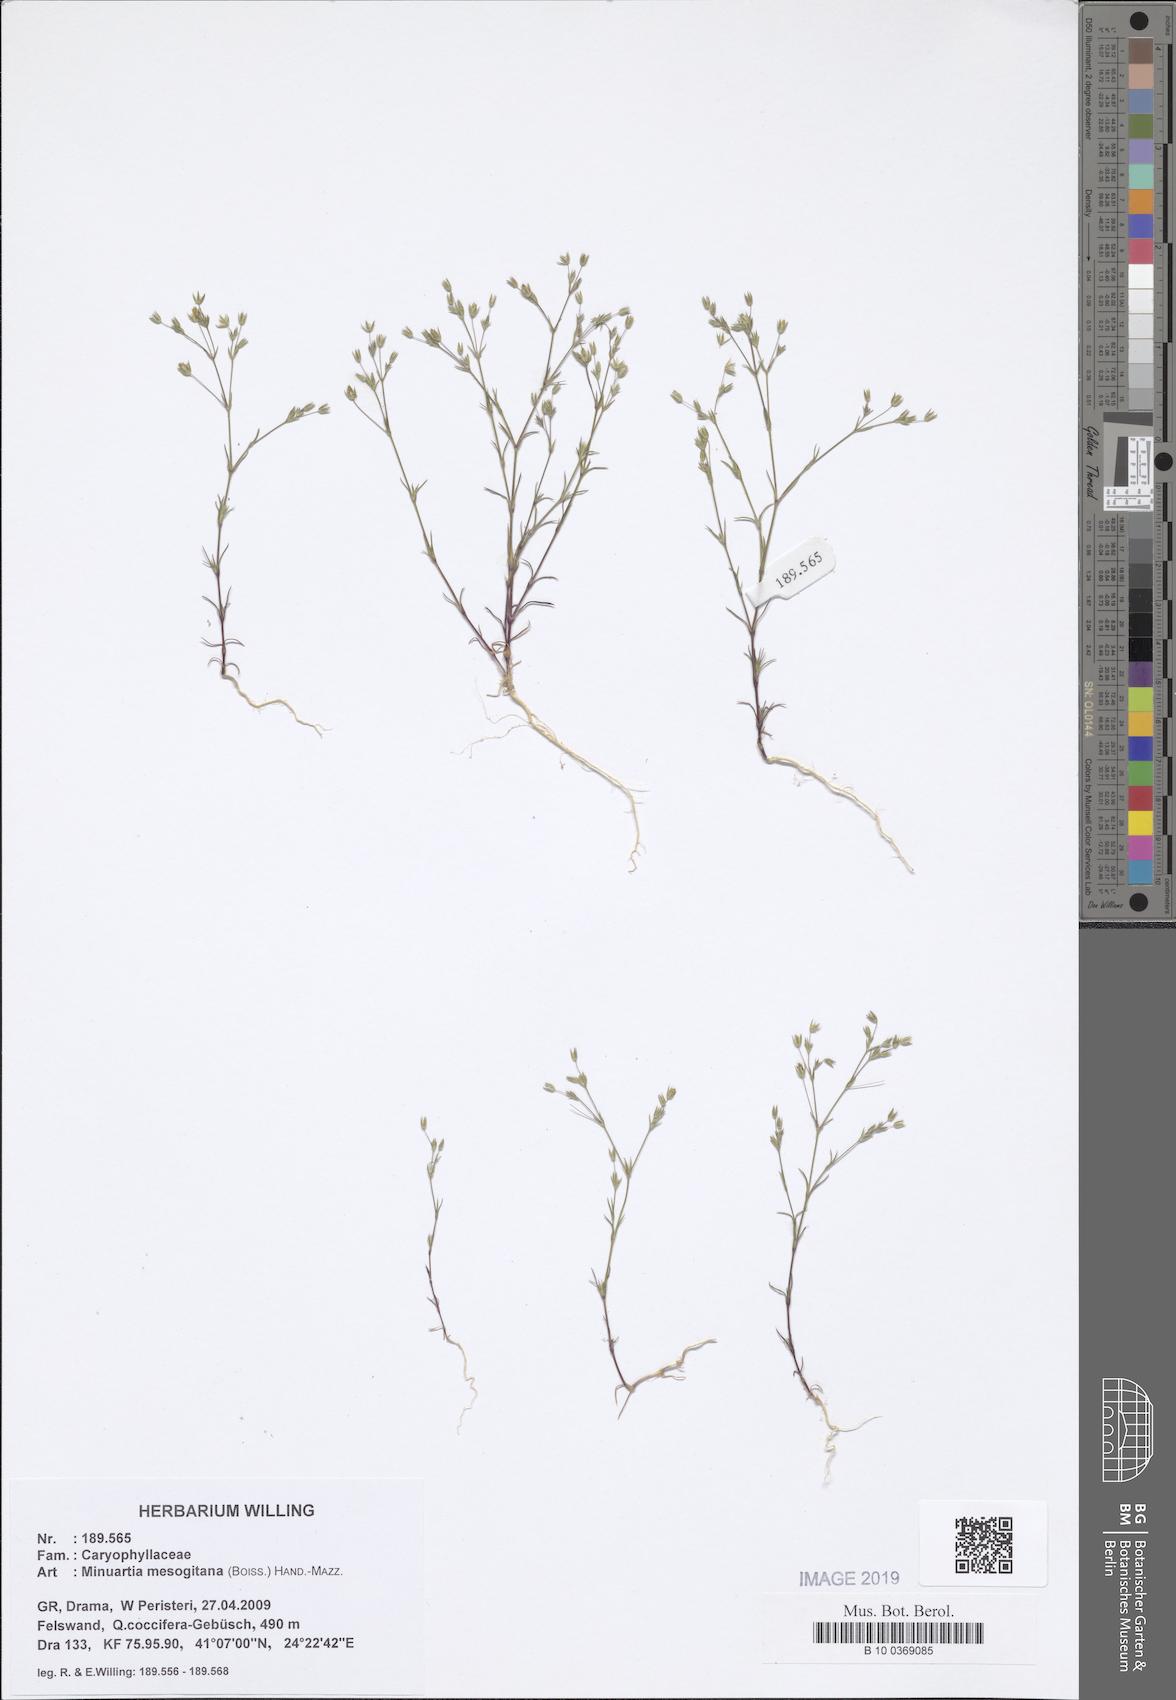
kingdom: Plantae
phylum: Tracheophyta
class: Magnoliopsida
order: Caryophyllales
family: Caryophyllaceae
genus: Sabulina
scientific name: Sabulina mesogitana
